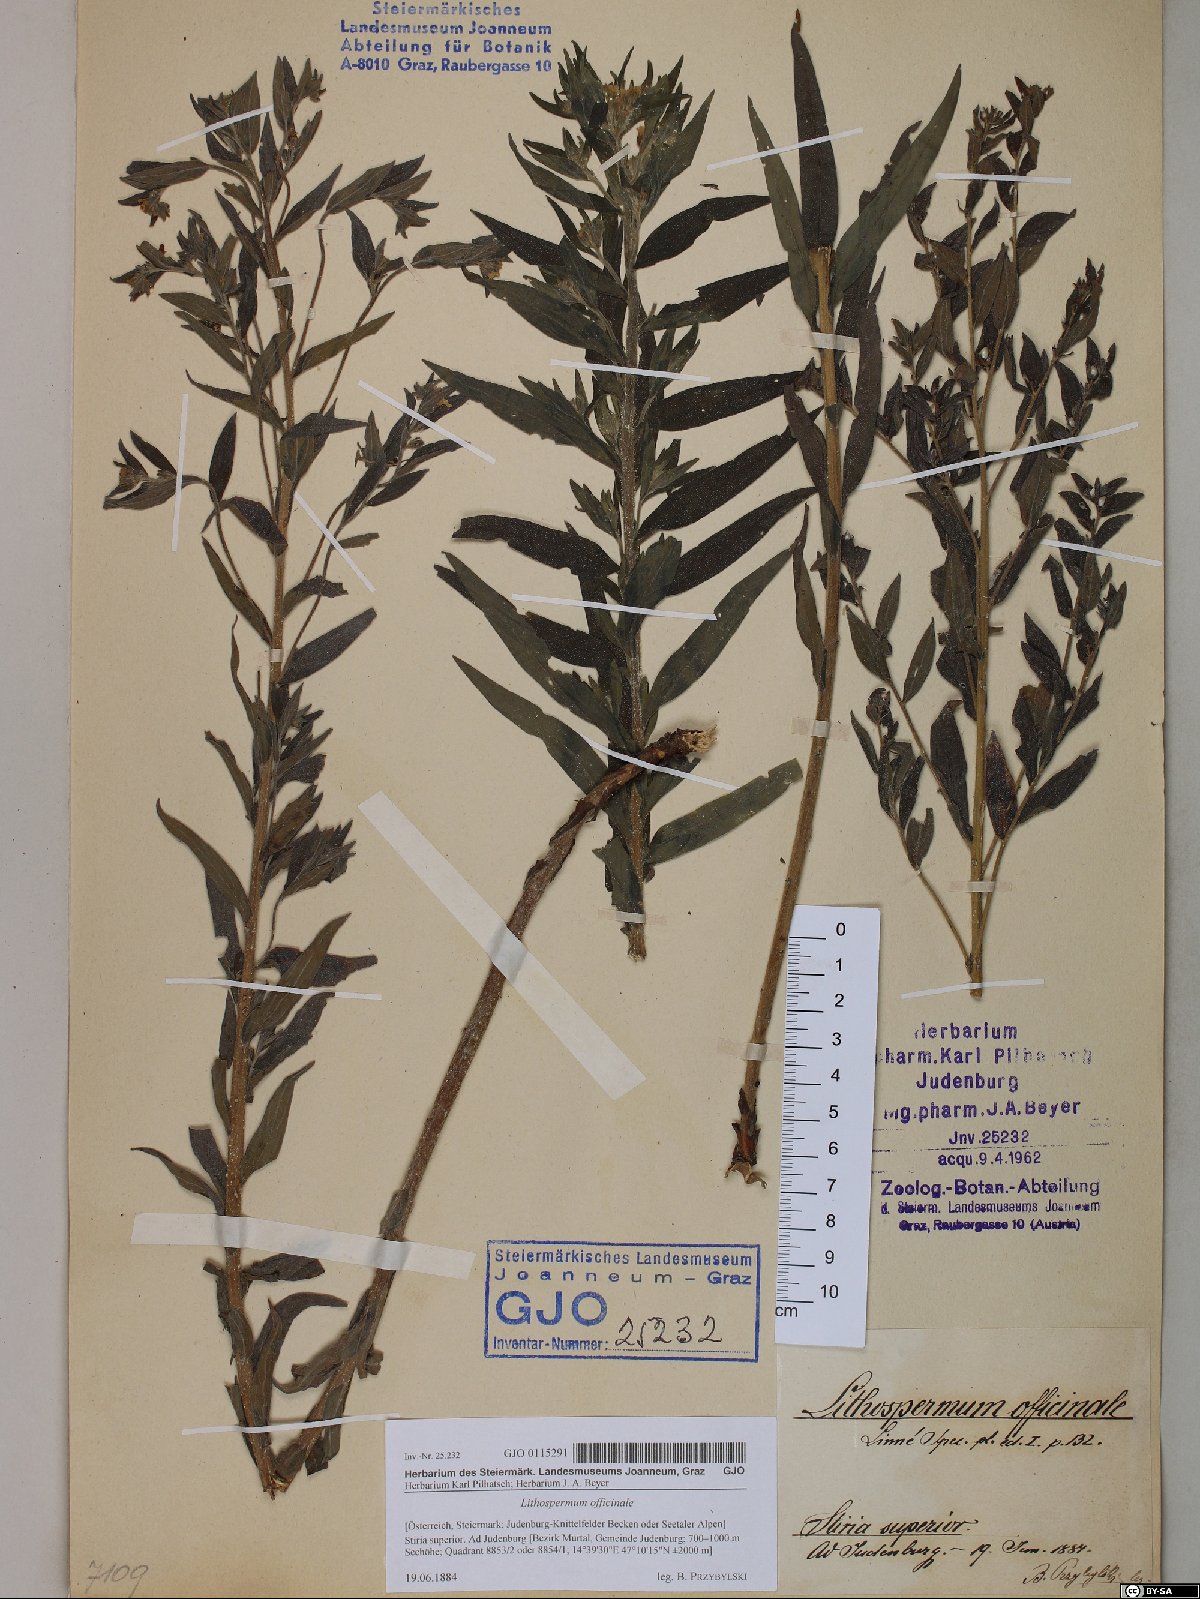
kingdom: Plantae
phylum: Tracheophyta
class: Magnoliopsida
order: Boraginales
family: Boraginaceae
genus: Lithospermum
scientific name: Lithospermum officinale
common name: Common gromwell
